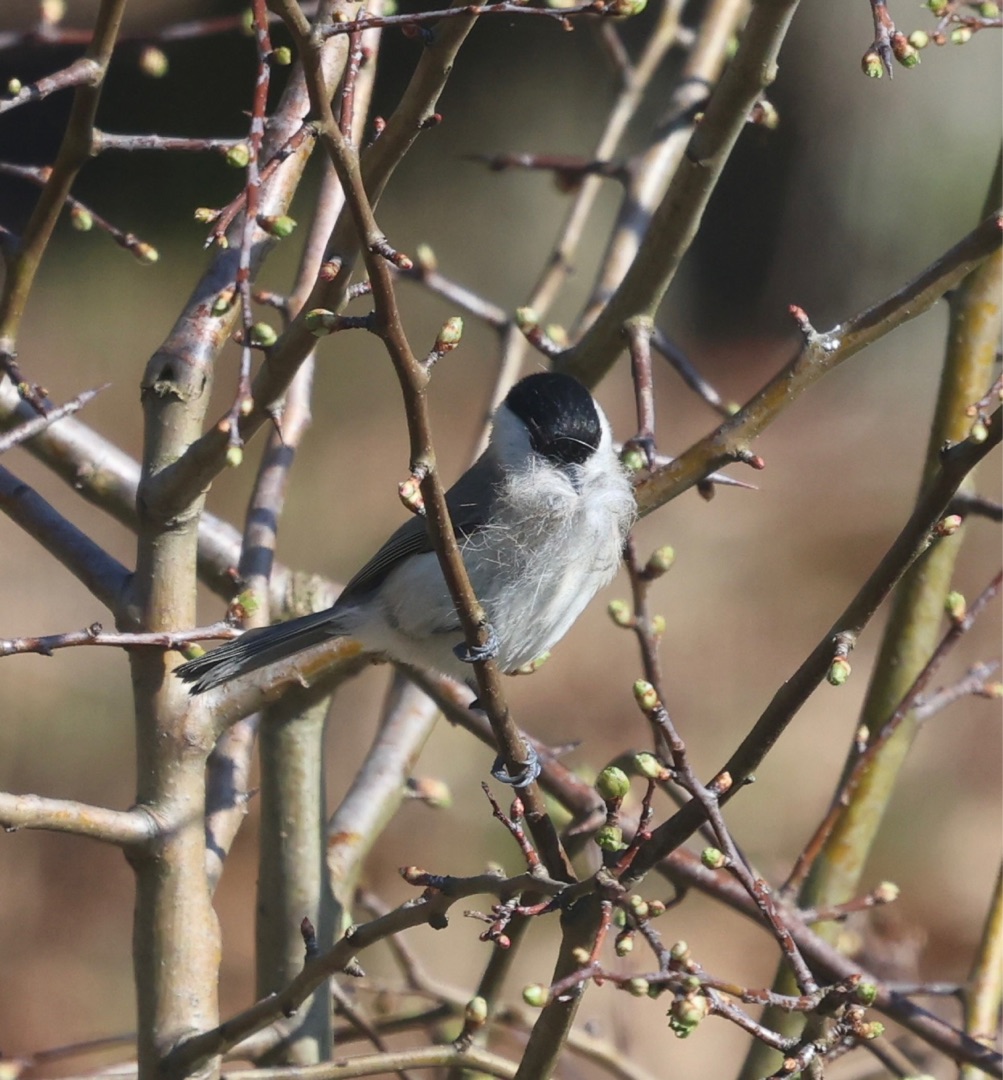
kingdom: Animalia
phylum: Chordata
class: Aves
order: Passeriformes
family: Paridae
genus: Poecile
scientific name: Poecile palustris
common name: Sumpmejse
